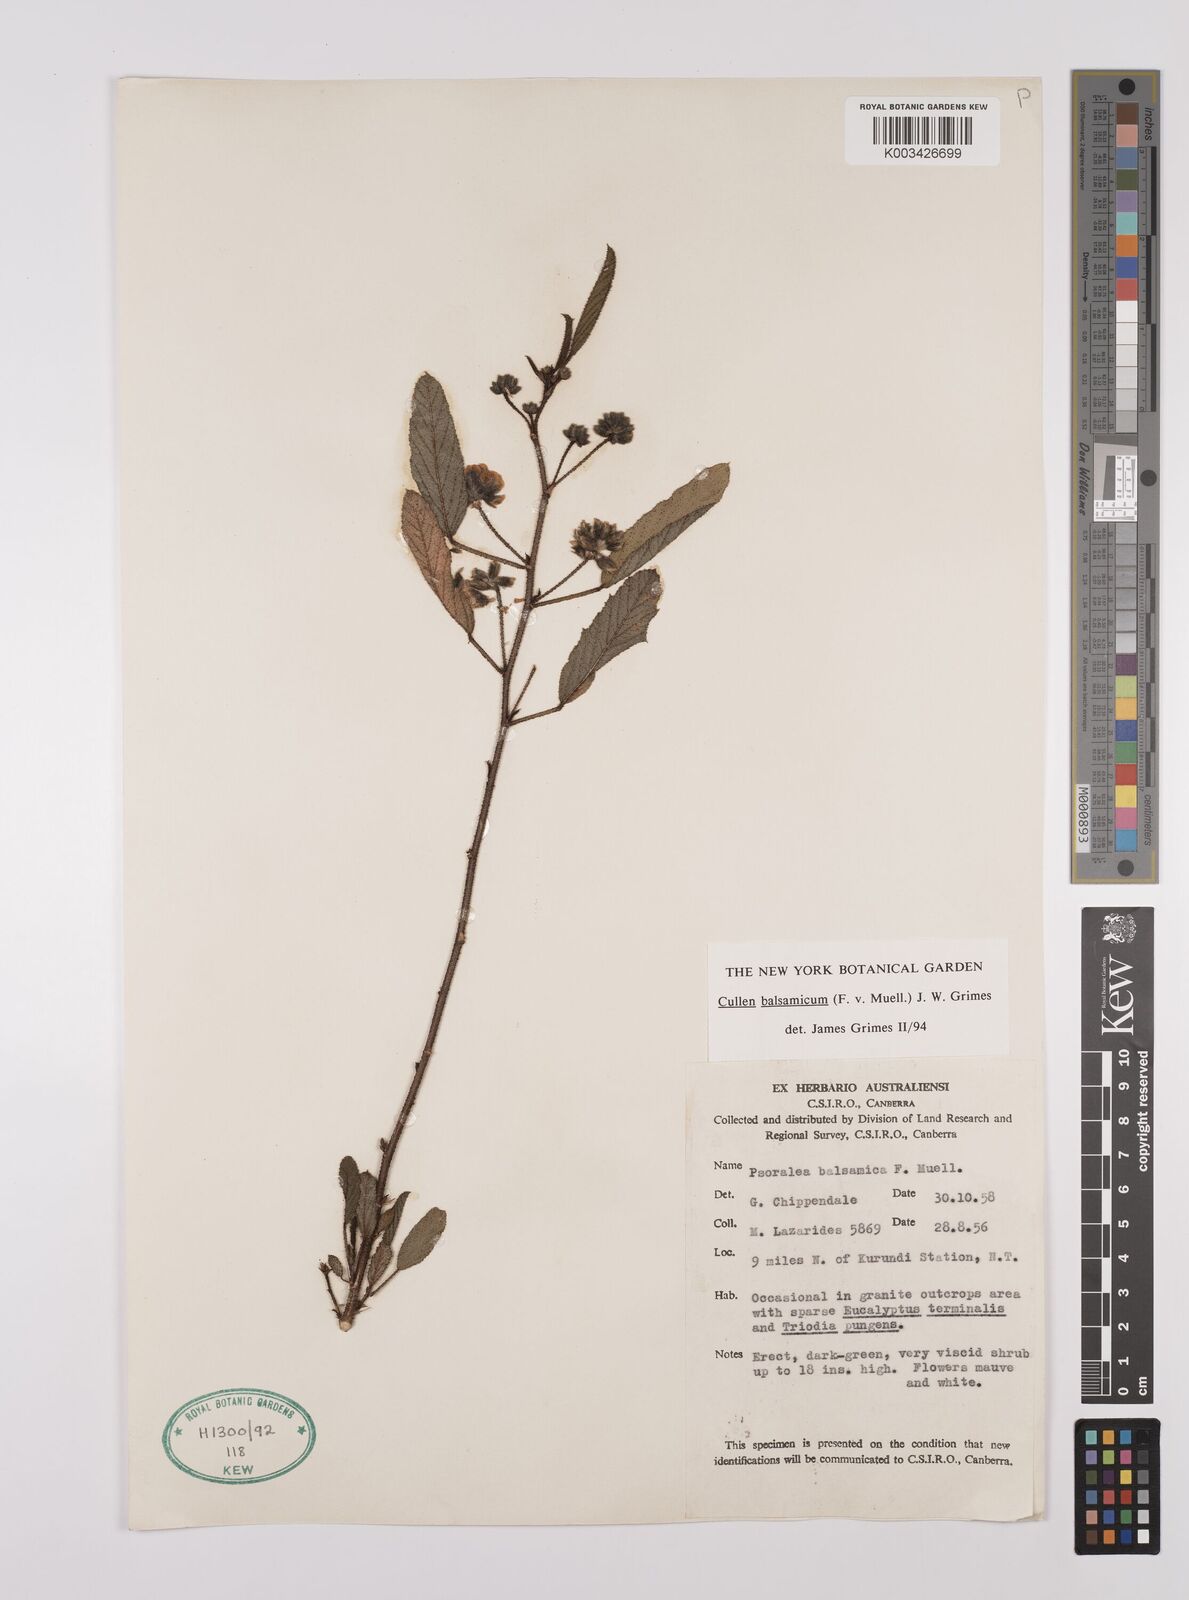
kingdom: Plantae
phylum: Tracheophyta
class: Magnoliopsida
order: Fabales
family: Fabaceae
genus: Cullen
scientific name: Cullen balsamicum
